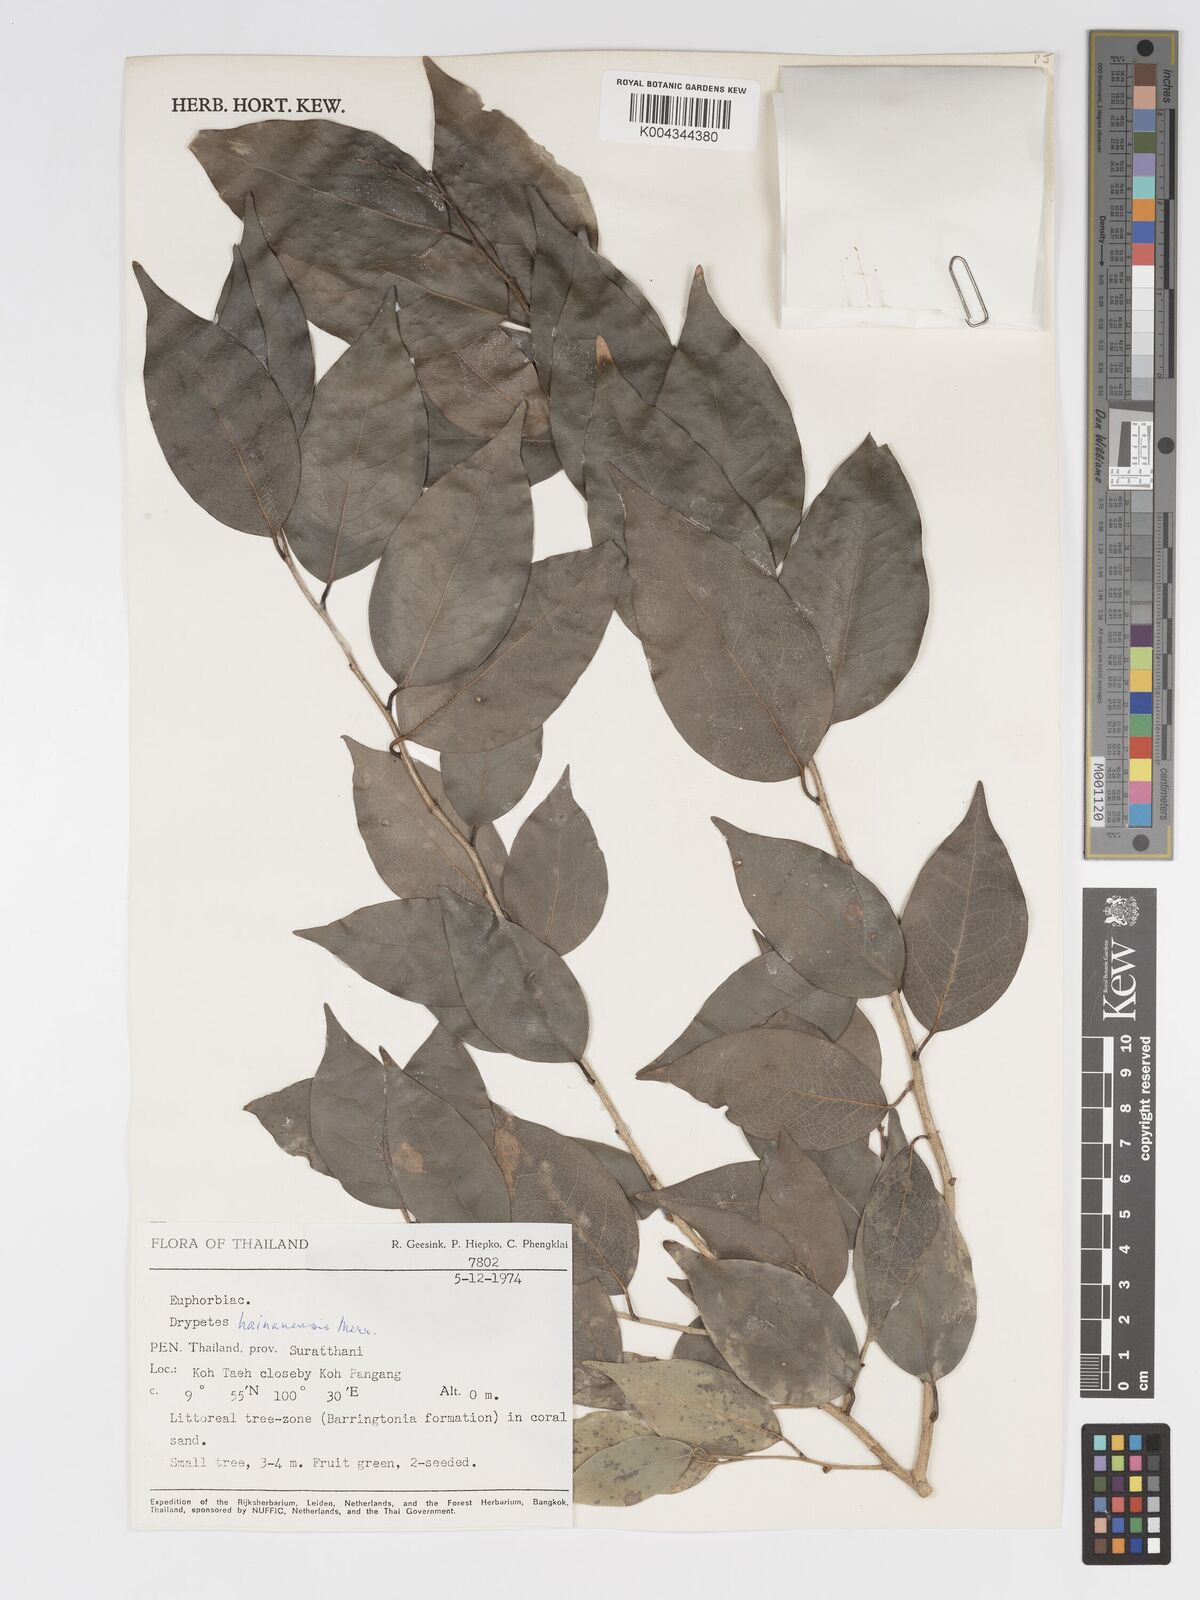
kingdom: Plantae
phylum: Tracheophyta
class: Magnoliopsida
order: Malpighiales
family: Putranjivaceae
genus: Drypetes
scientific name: Drypetes hainanensis
